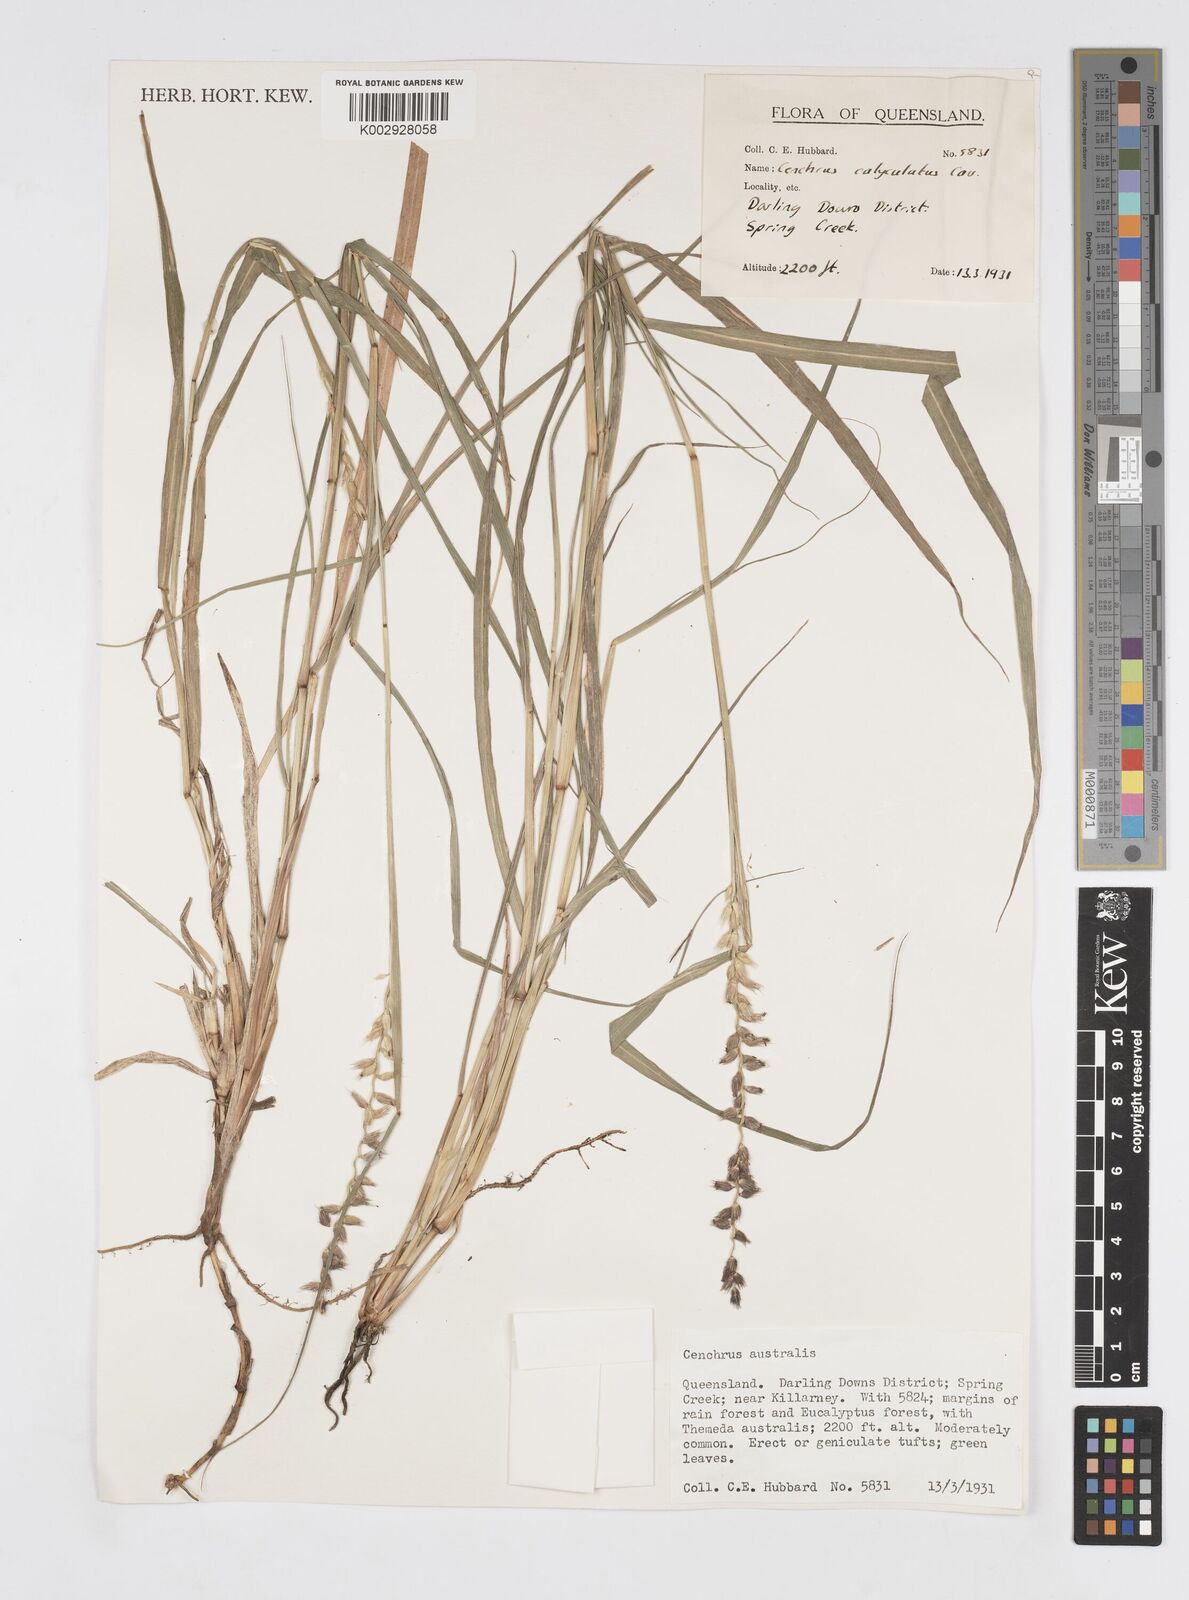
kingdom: Plantae
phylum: Tracheophyta
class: Liliopsida
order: Poales
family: Poaceae
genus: Cenchrus
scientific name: Cenchrus caliculatus
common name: Large bur grass
